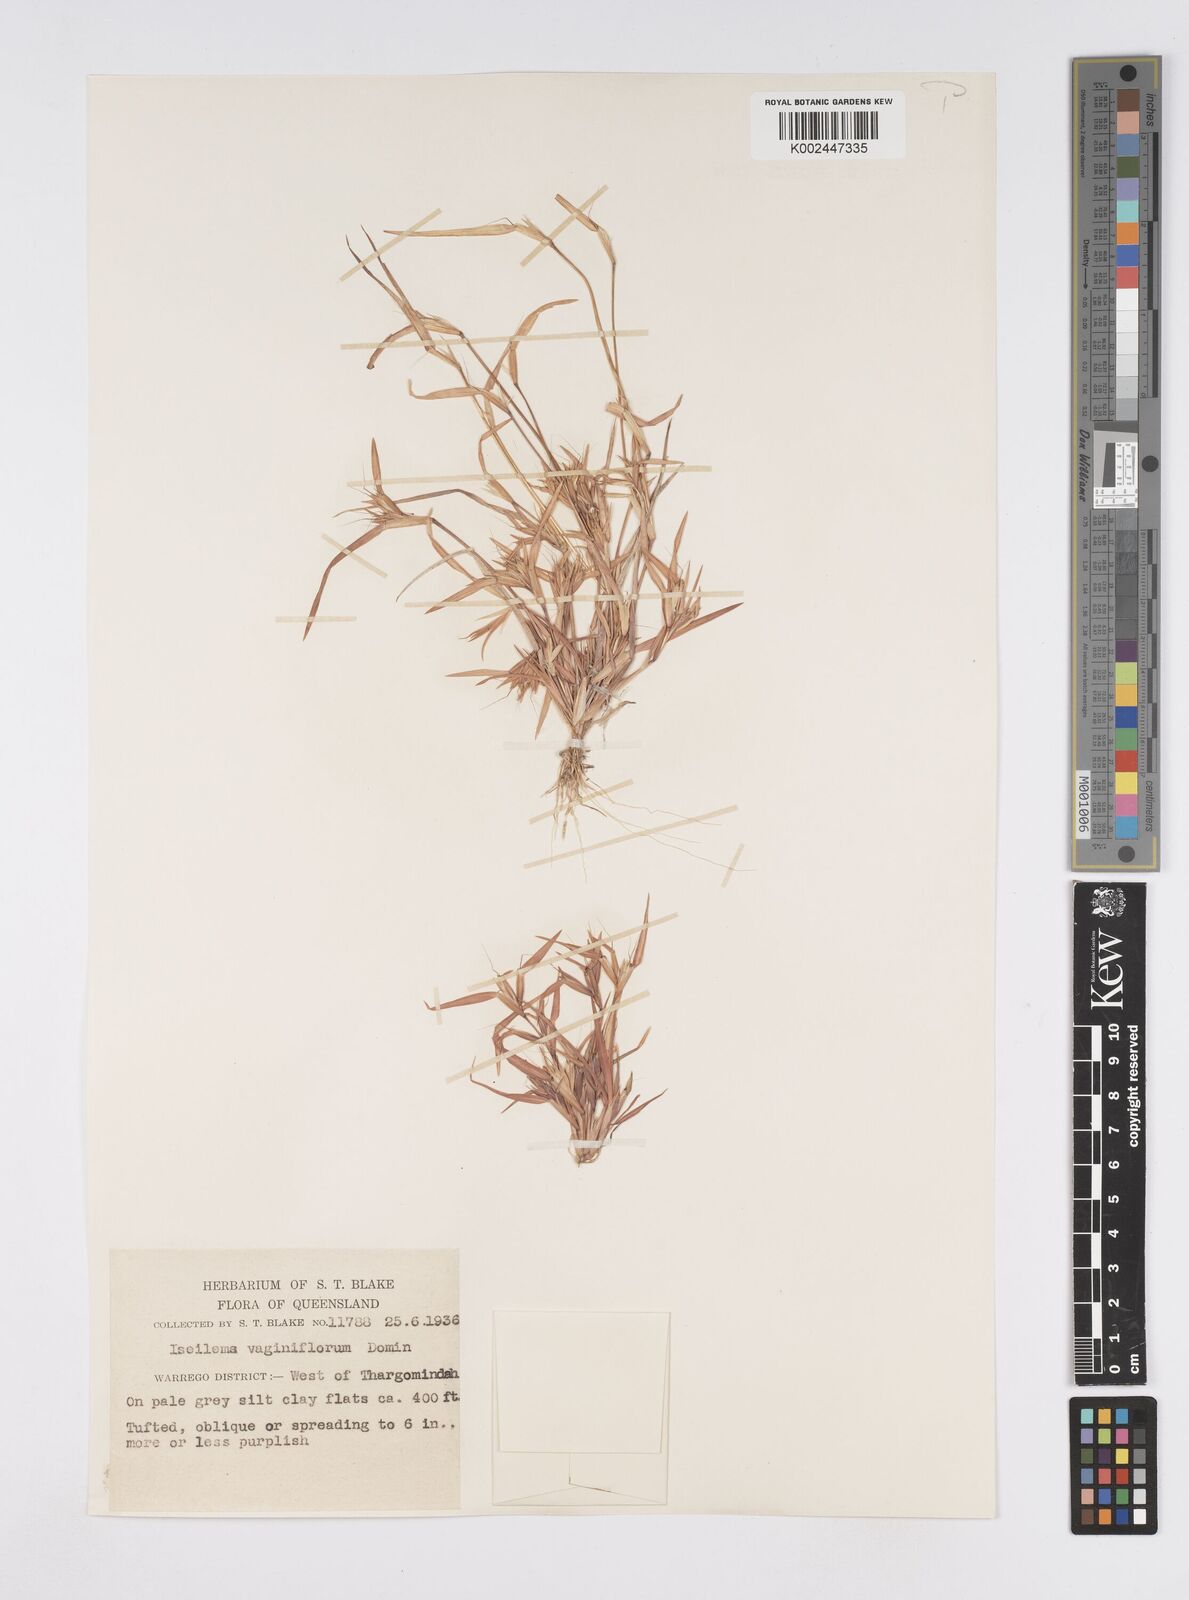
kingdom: Plantae
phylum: Tracheophyta
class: Liliopsida
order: Poales
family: Poaceae
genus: Iseilema
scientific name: Iseilema vaginiflorum
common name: Red flinders grass
